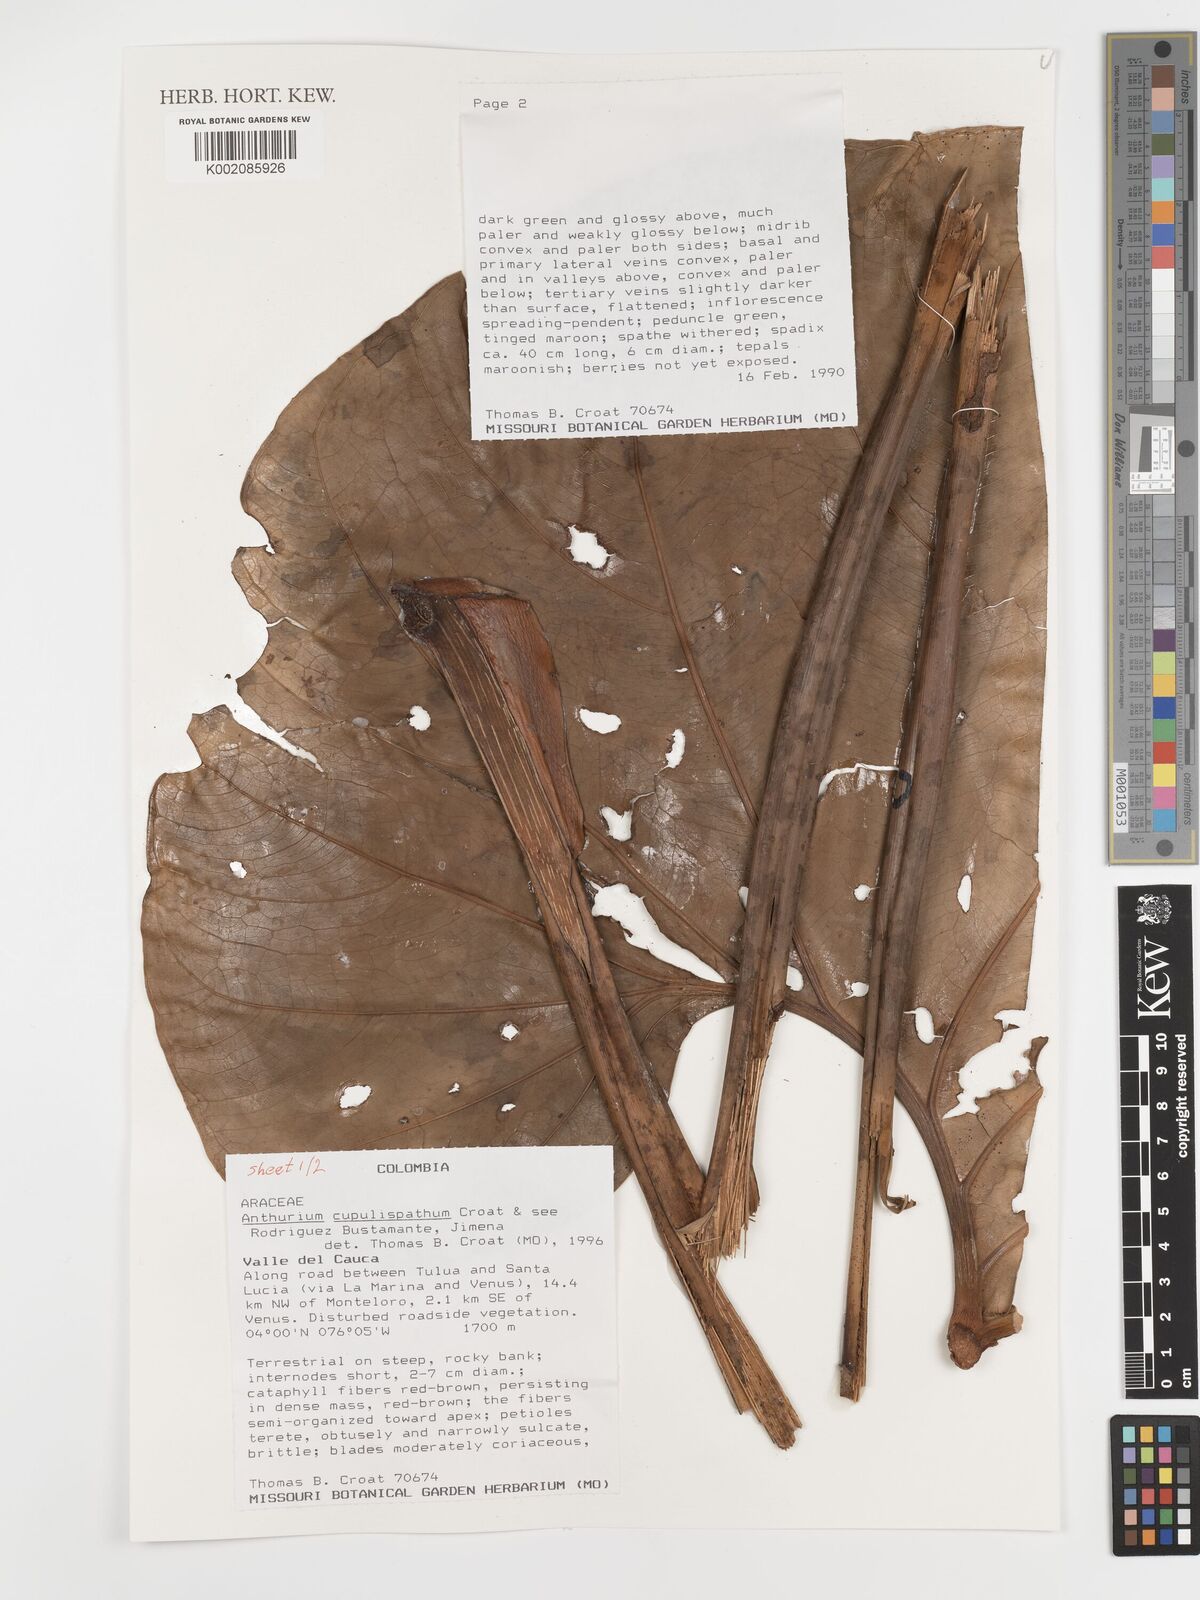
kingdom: Plantae
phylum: Tracheophyta
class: Liliopsida
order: Alismatales
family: Araceae
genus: Anthurium
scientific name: Anthurium cupulispathum
